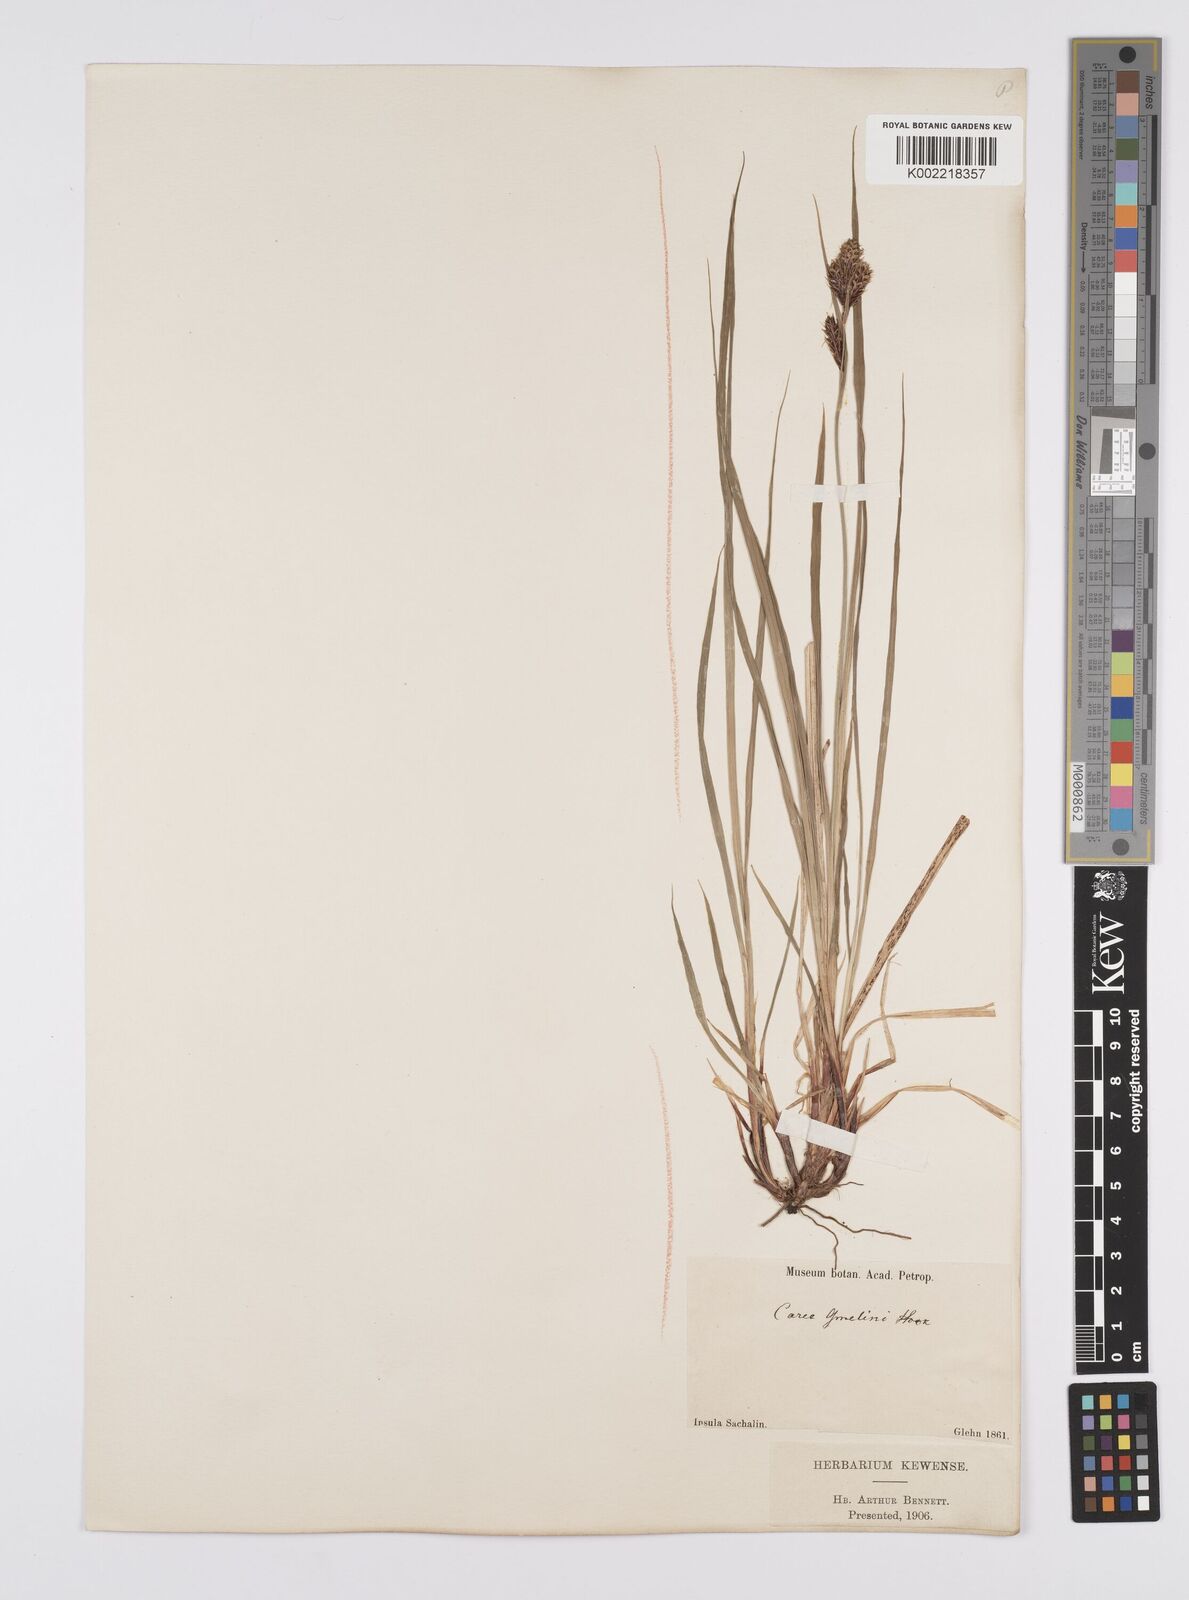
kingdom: Plantae
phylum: Tracheophyta
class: Liliopsida
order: Poales
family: Cyperaceae
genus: Carex
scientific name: Carex gmelinii
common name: Gmelin's sedge
